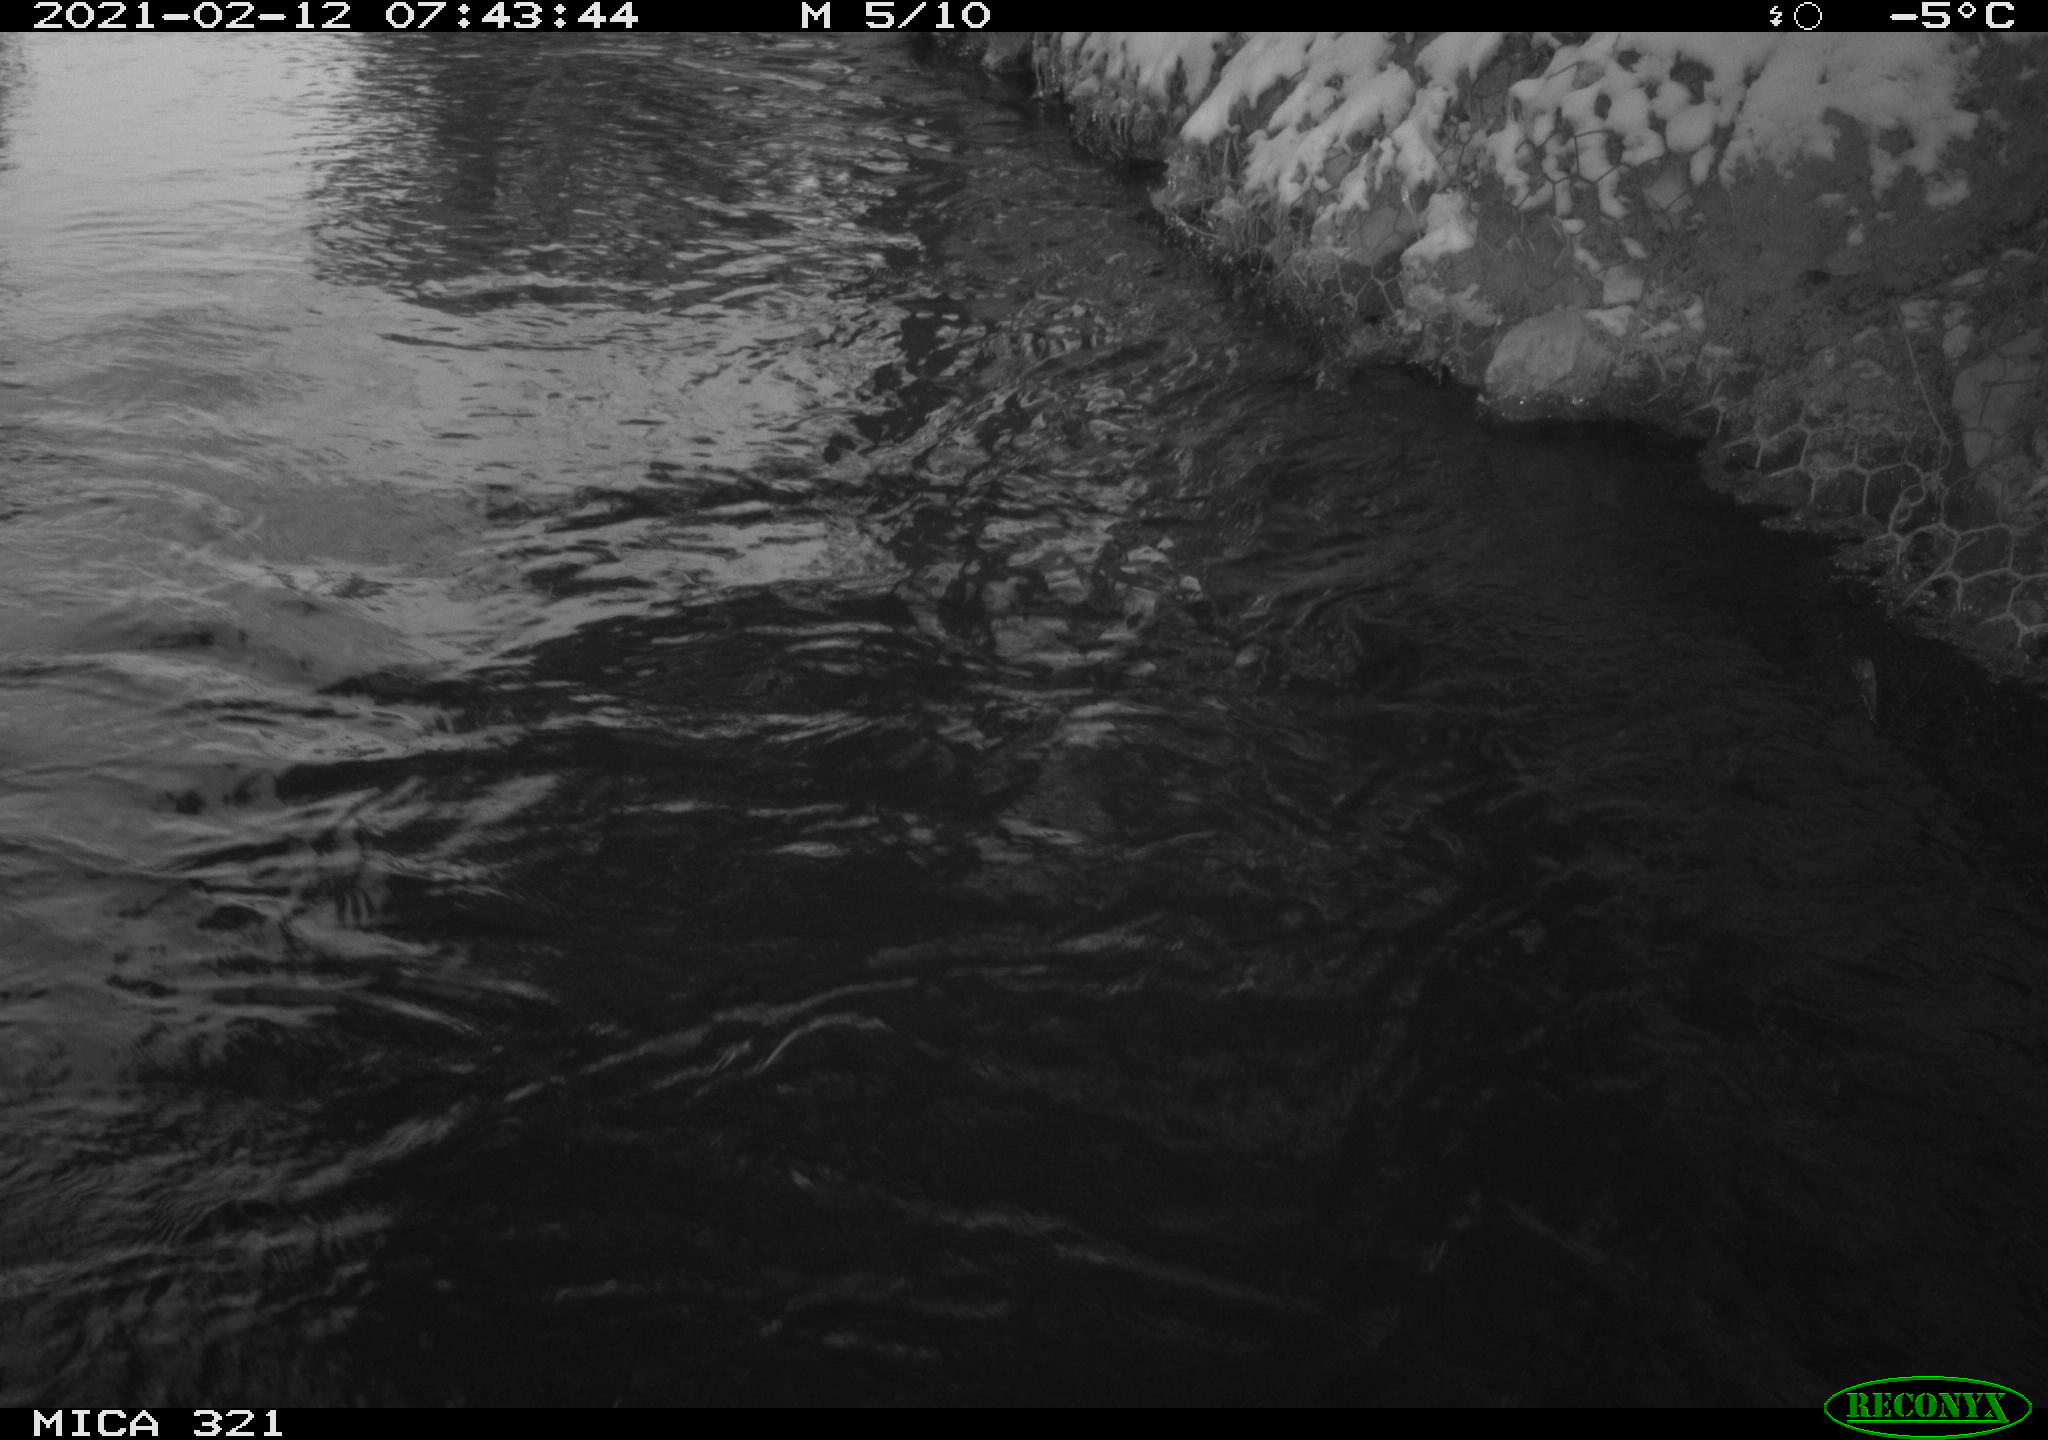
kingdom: Animalia
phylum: Chordata
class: Aves
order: Suliformes
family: Phalacrocoracidae
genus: Phalacrocorax
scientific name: Phalacrocorax carbo
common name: Great cormorant
